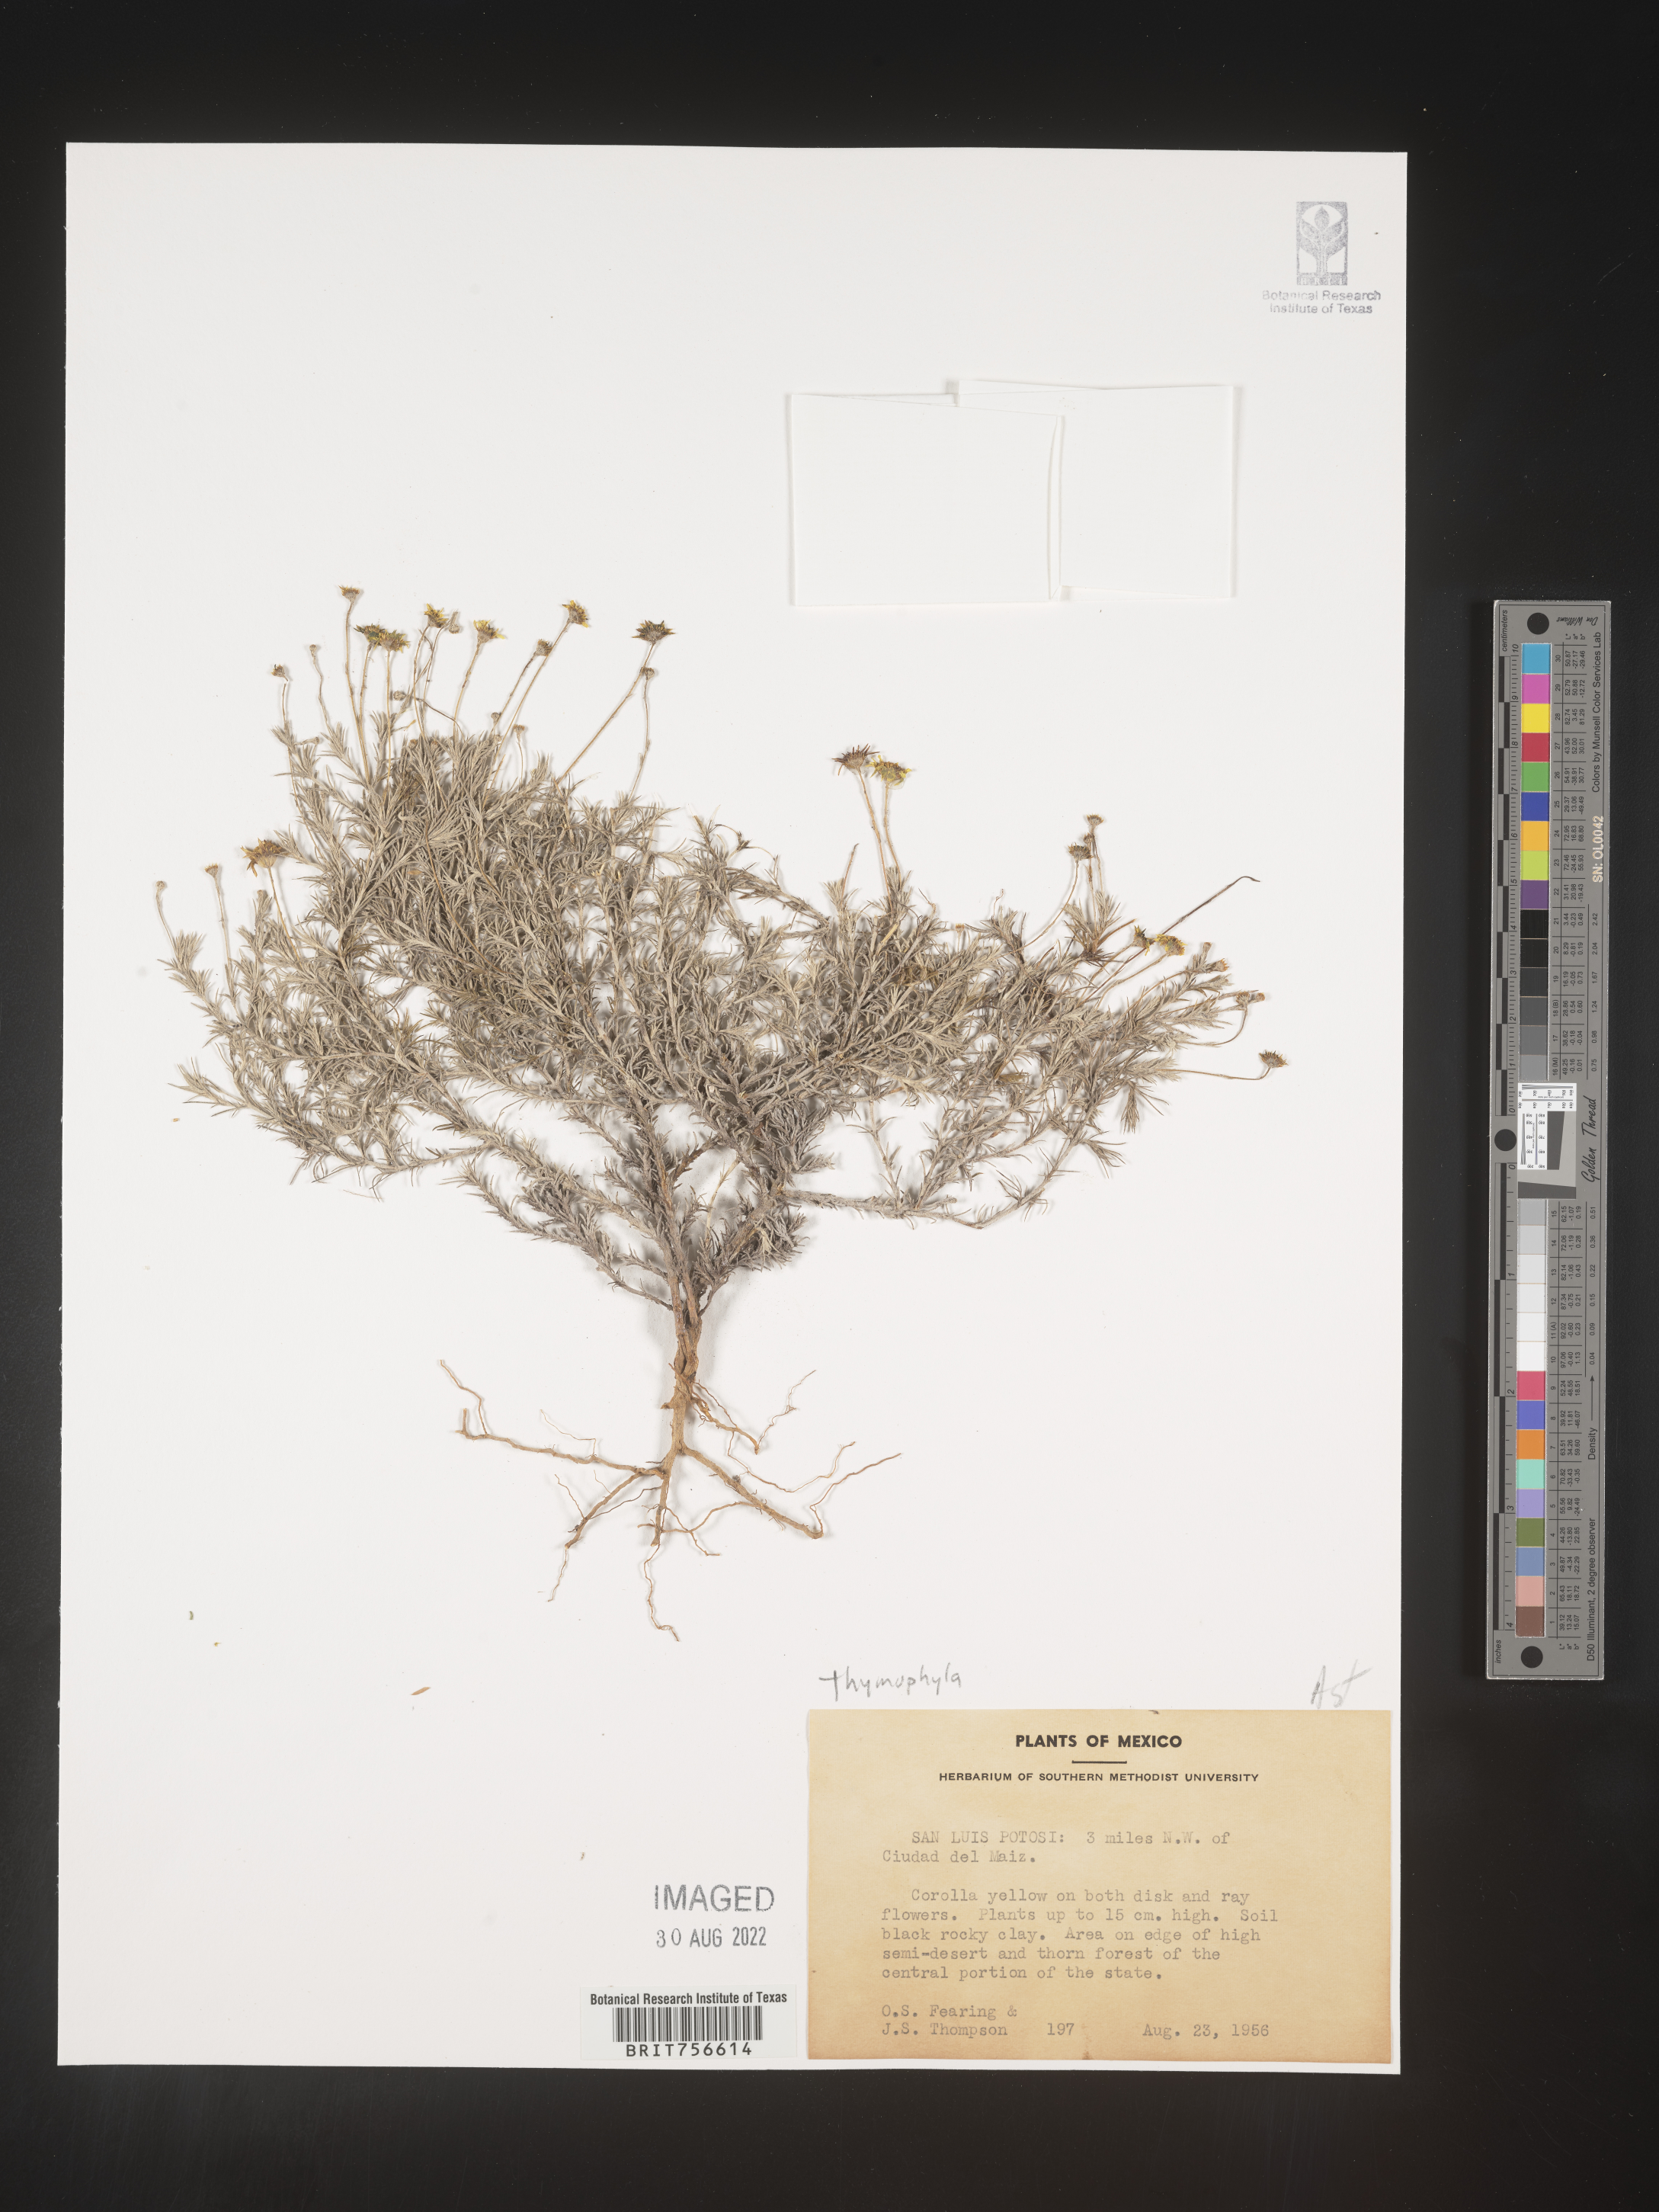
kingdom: Plantae
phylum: Tracheophyta
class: Magnoliopsida
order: Asterales
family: Asteraceae
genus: Thymophylla
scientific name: Thymophylla
